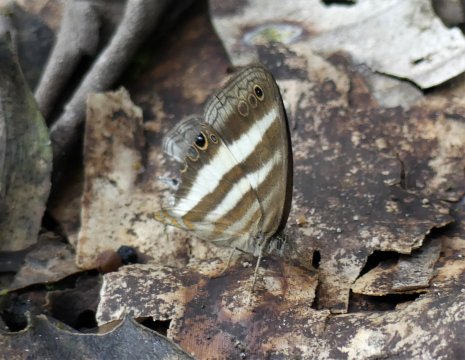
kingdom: Animalia
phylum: Arthropoda
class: Insecta
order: Lepidoptera
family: Nymphalidae
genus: Pareuptychia
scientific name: Pareuptychia hesione
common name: White Satyr
